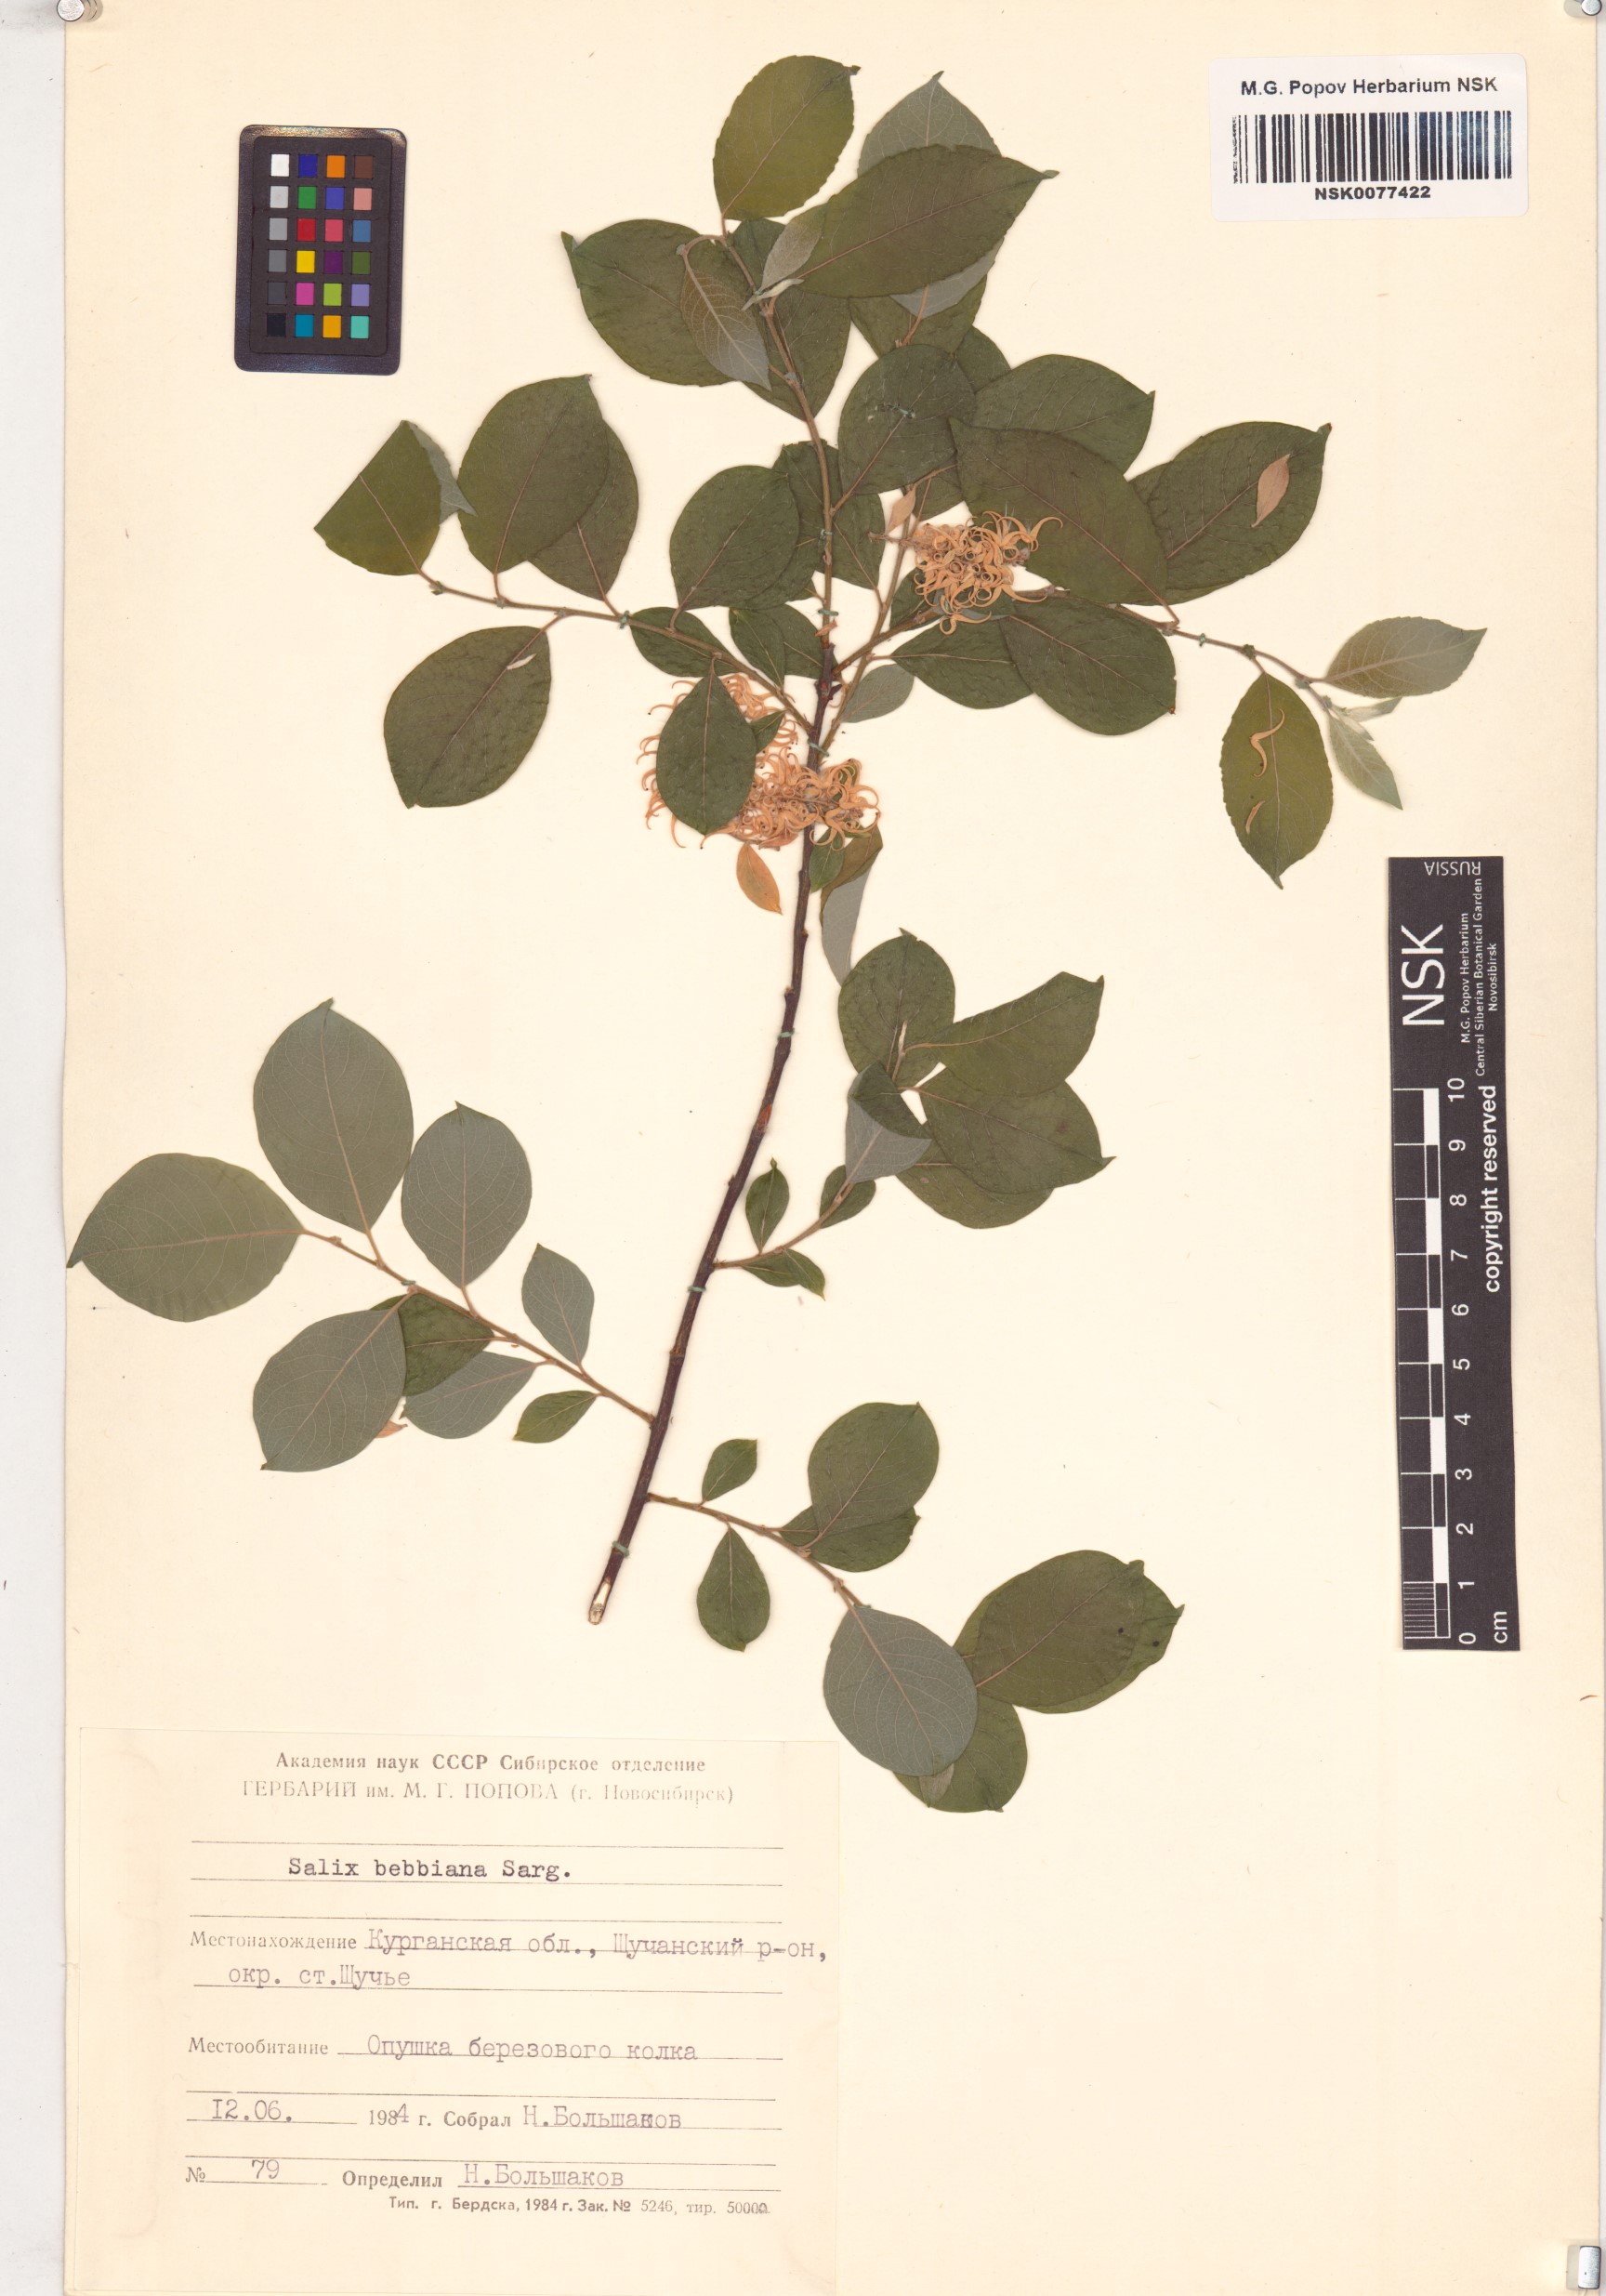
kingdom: Plantae
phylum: Tracheophyta
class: Magnoliopsida
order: Malpighiales
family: Salicaceae
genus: Salix
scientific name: Salix bebbiana
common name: Bebb's willow
